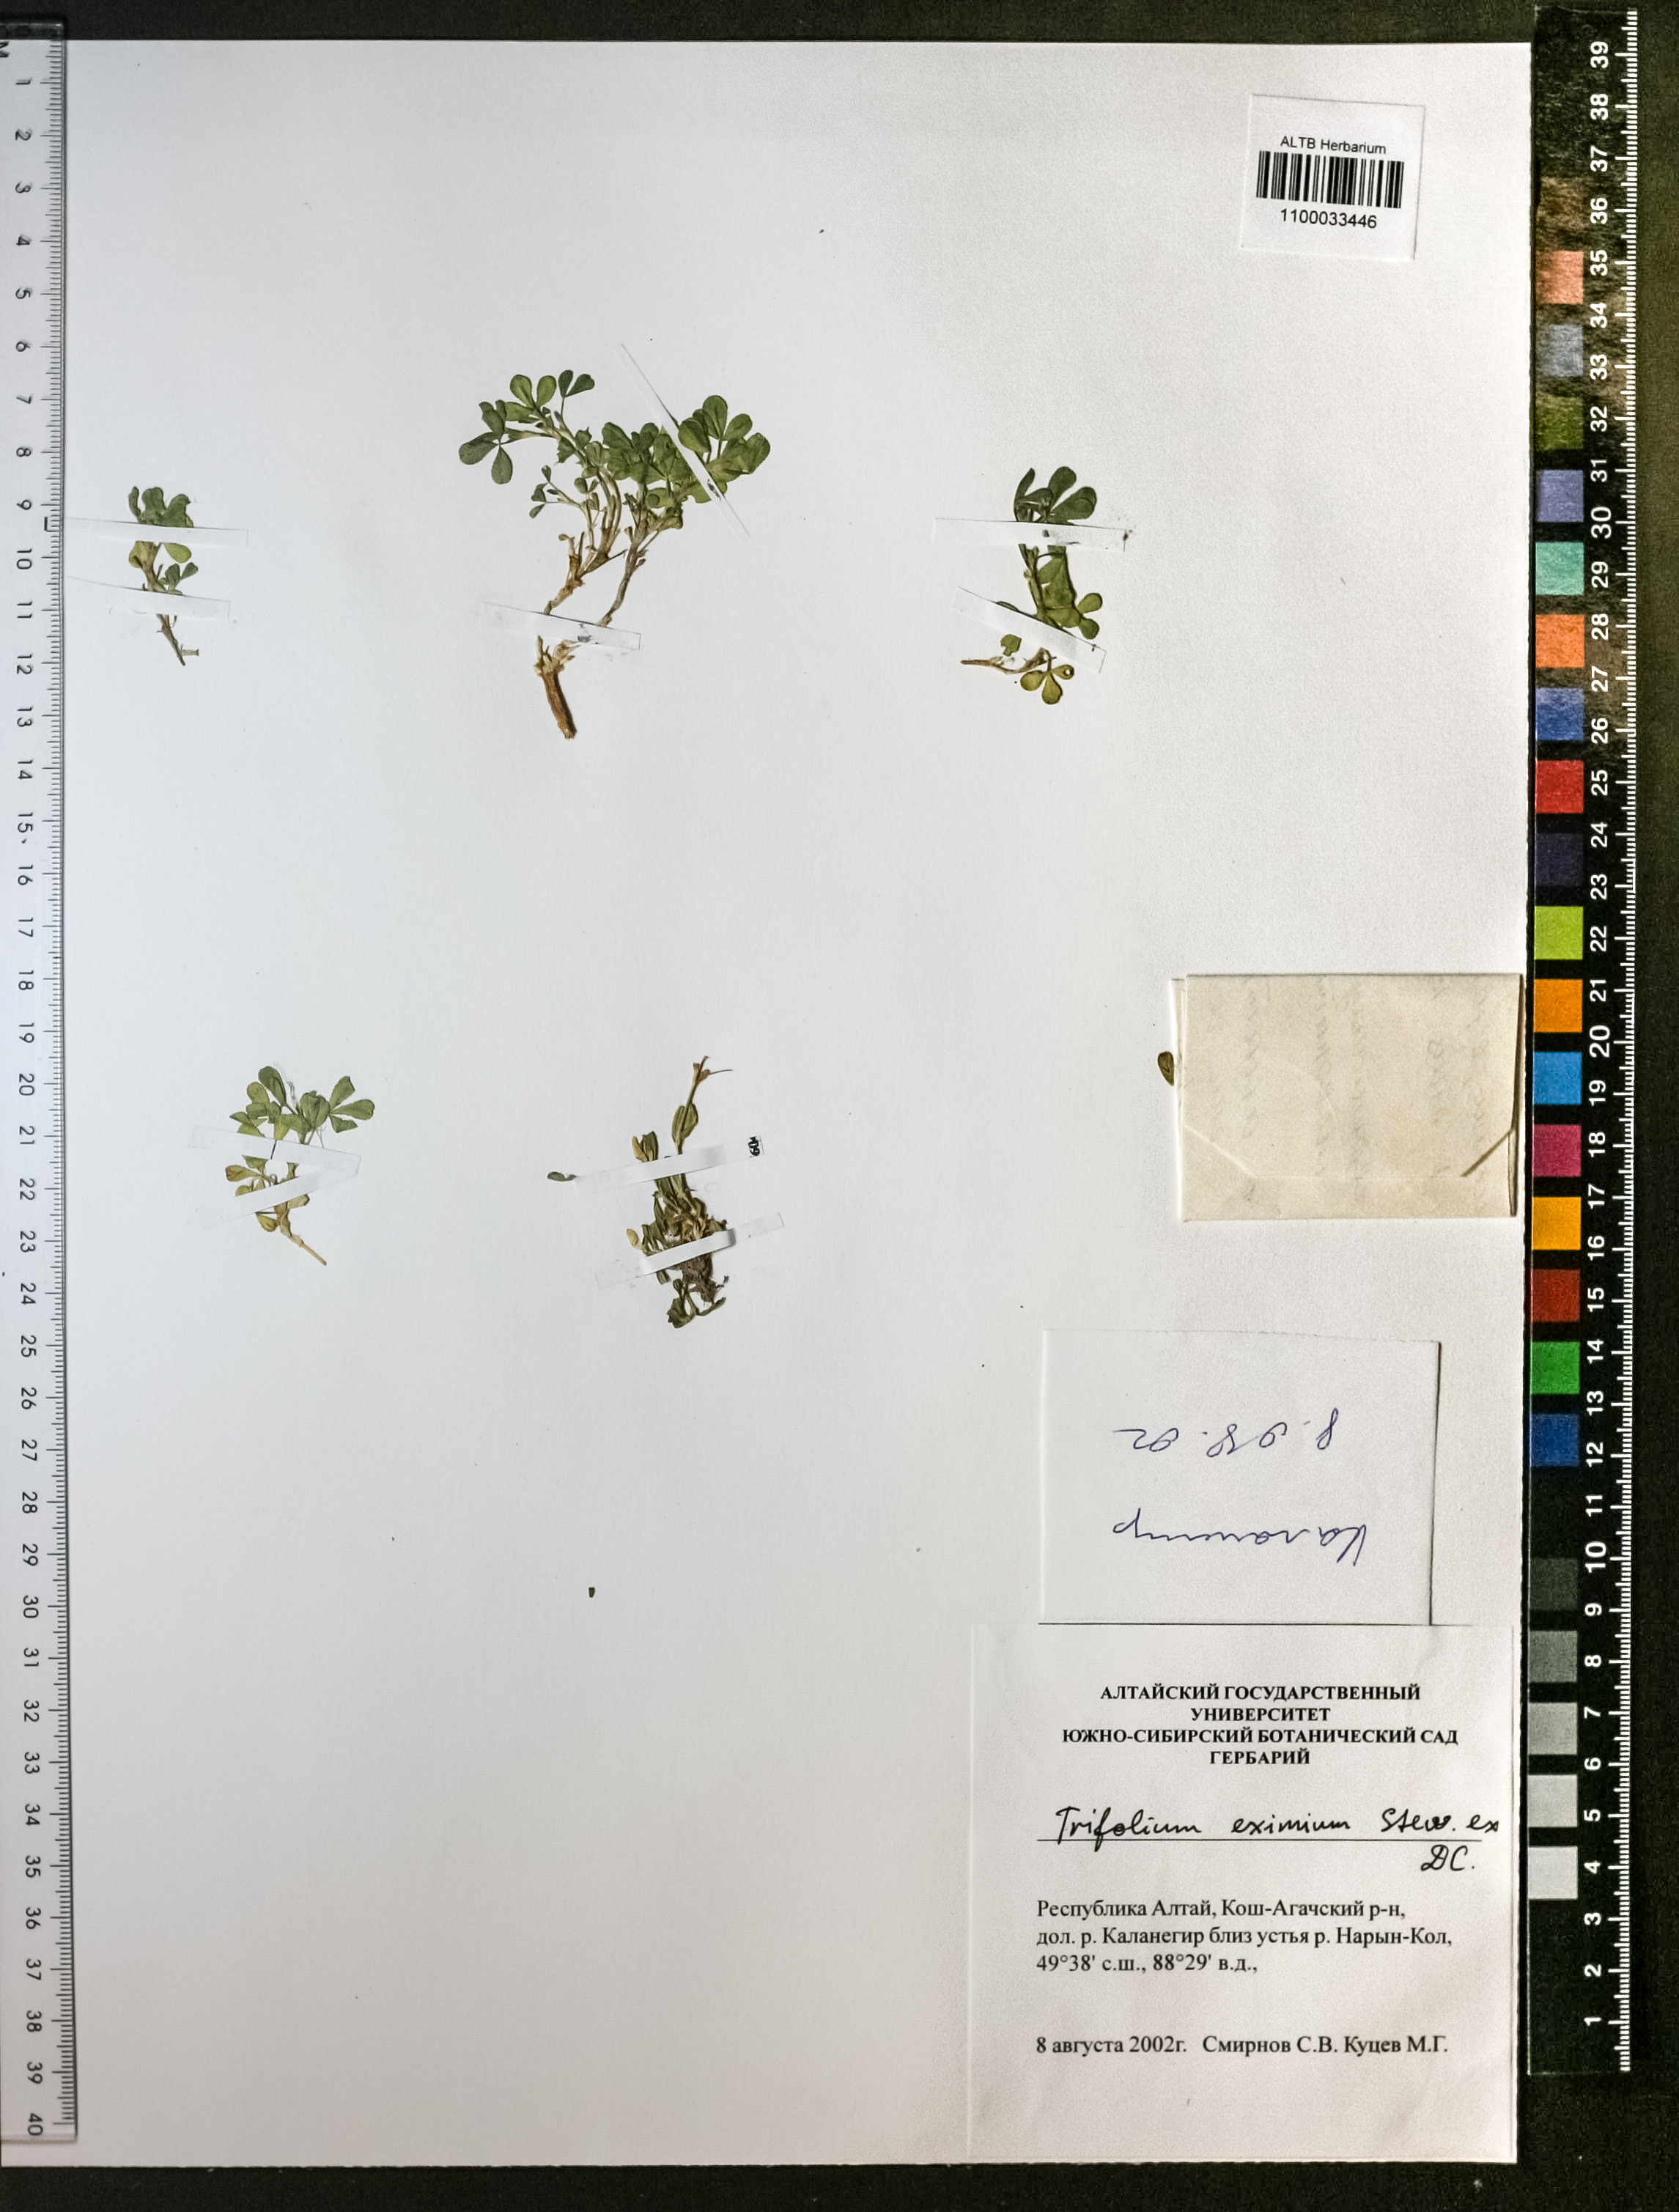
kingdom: Plantae
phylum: Tracheophyta
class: Magnoliopsida
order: Fabales
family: Fabaceae
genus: Trifolium
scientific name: Trifolium eximium
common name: Excellent clover
